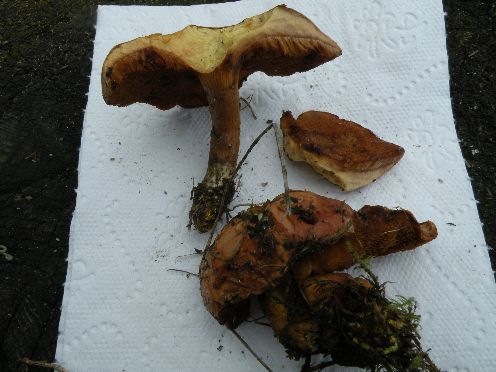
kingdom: Fungi
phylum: Basidiomycota
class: Agaricomycetes
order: Boletales
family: Suillaceae
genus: Suillus
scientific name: Suillus variegatus
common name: broget slimrørhat
